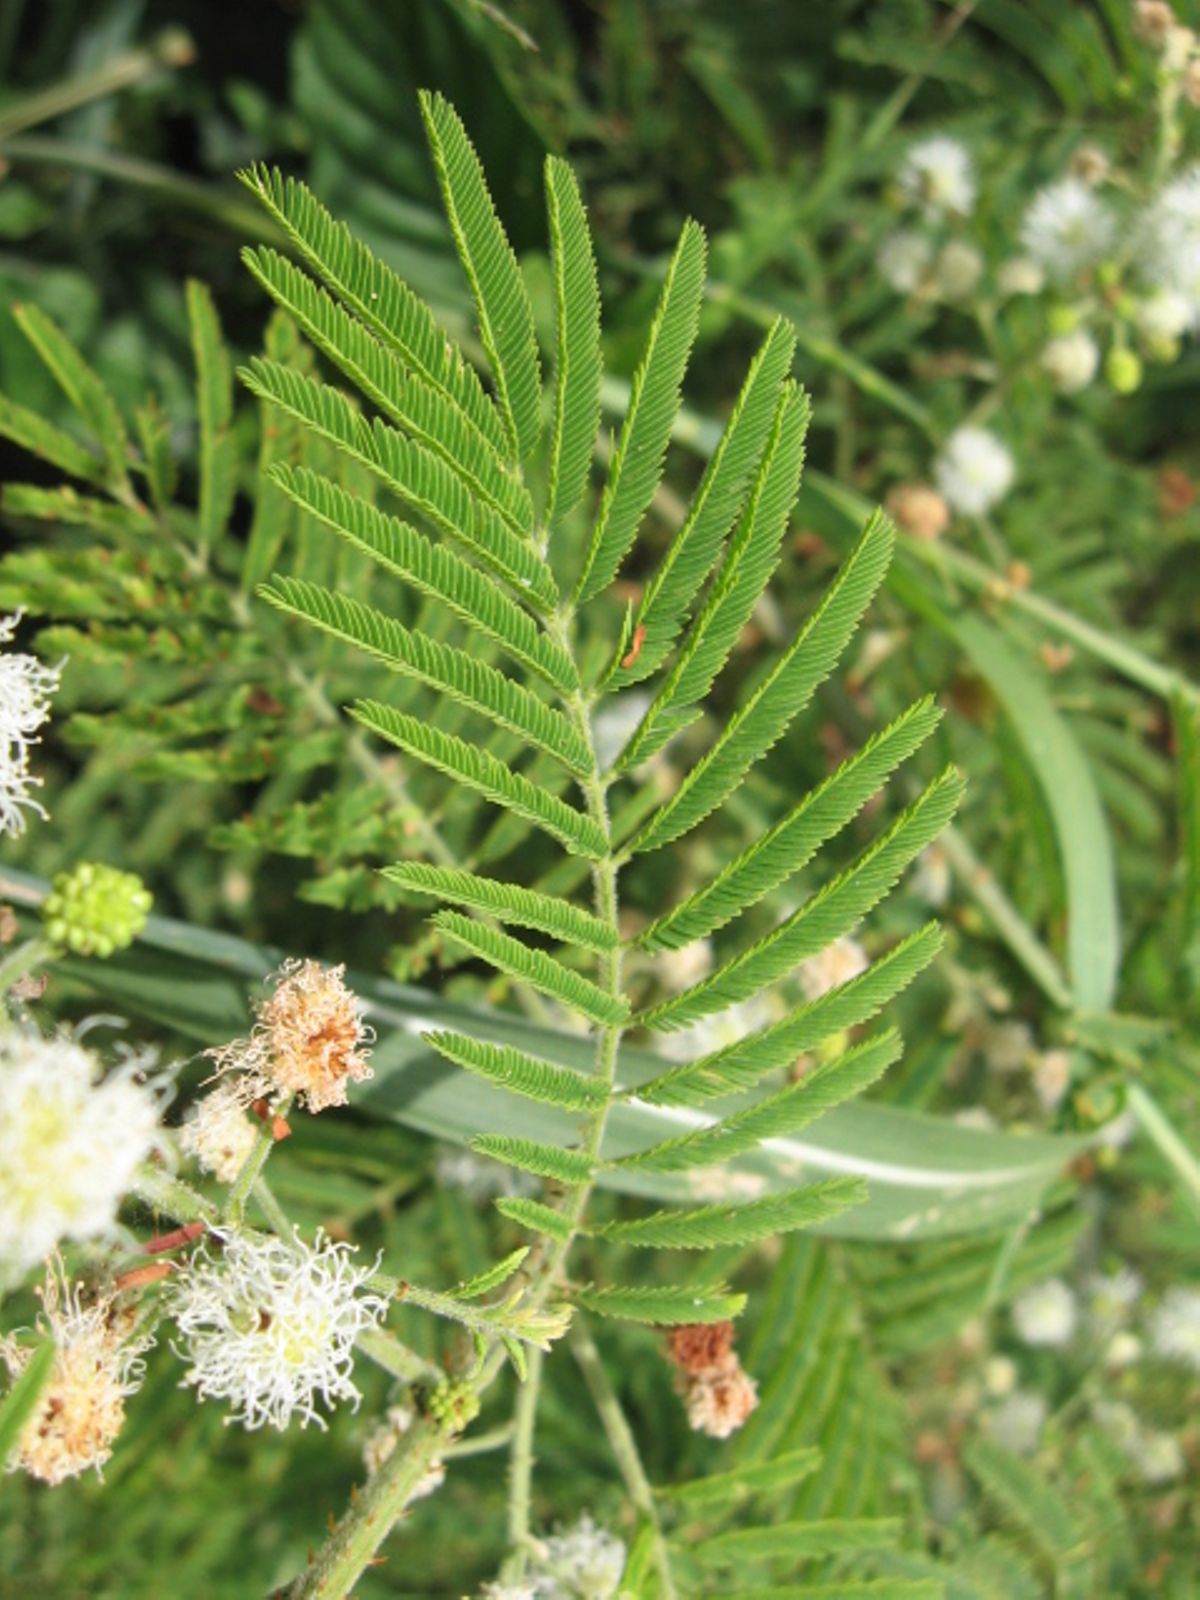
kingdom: Plantae
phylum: Tracheophyta
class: Magnoliopsida
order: Fabales
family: Fabaceae
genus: Mimosa
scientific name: Mimosa diplotricha
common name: Giant sensitive-plant
